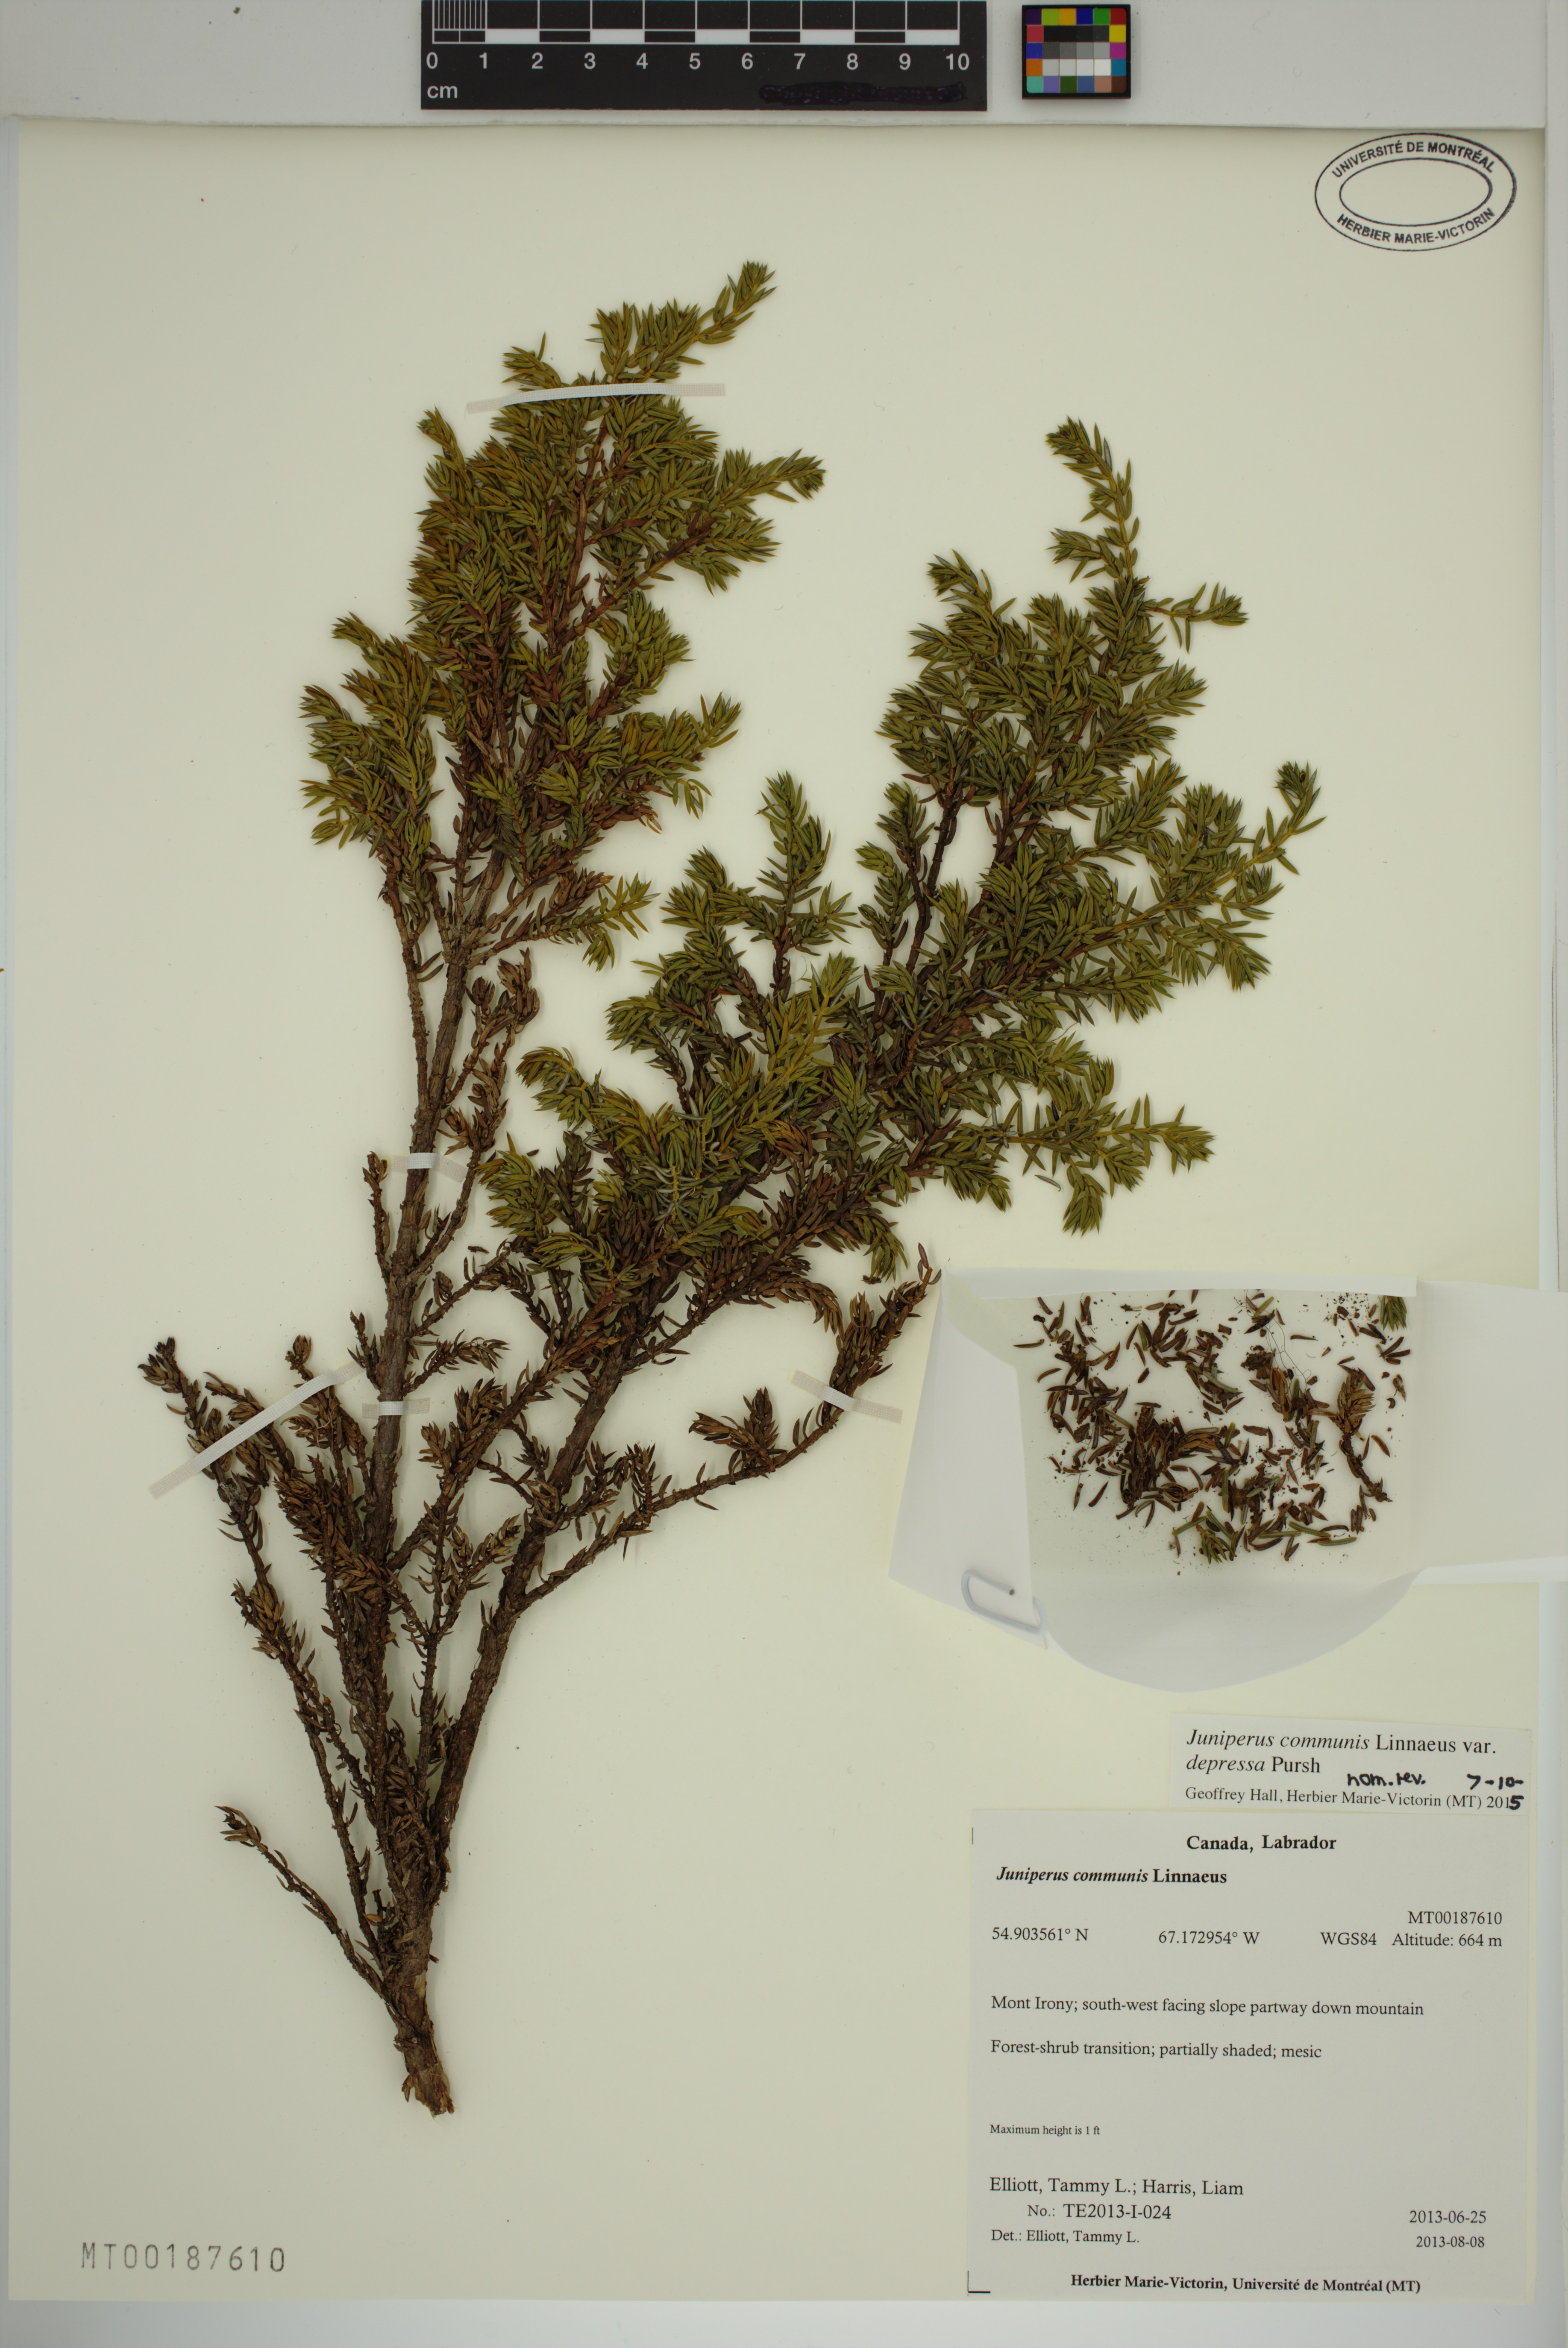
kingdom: Plantae
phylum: Tracheophyta
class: Pinopsida
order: Pinales
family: Cupressaceae
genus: Juniperus
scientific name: Juniperus communis
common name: Common juniper
